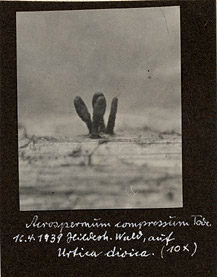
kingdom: Fungi
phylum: Ascomycota
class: Dothideomycetes
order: Acrospermales
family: Acrospermaceae
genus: Acrospermum
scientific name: Acrospermum compressum
